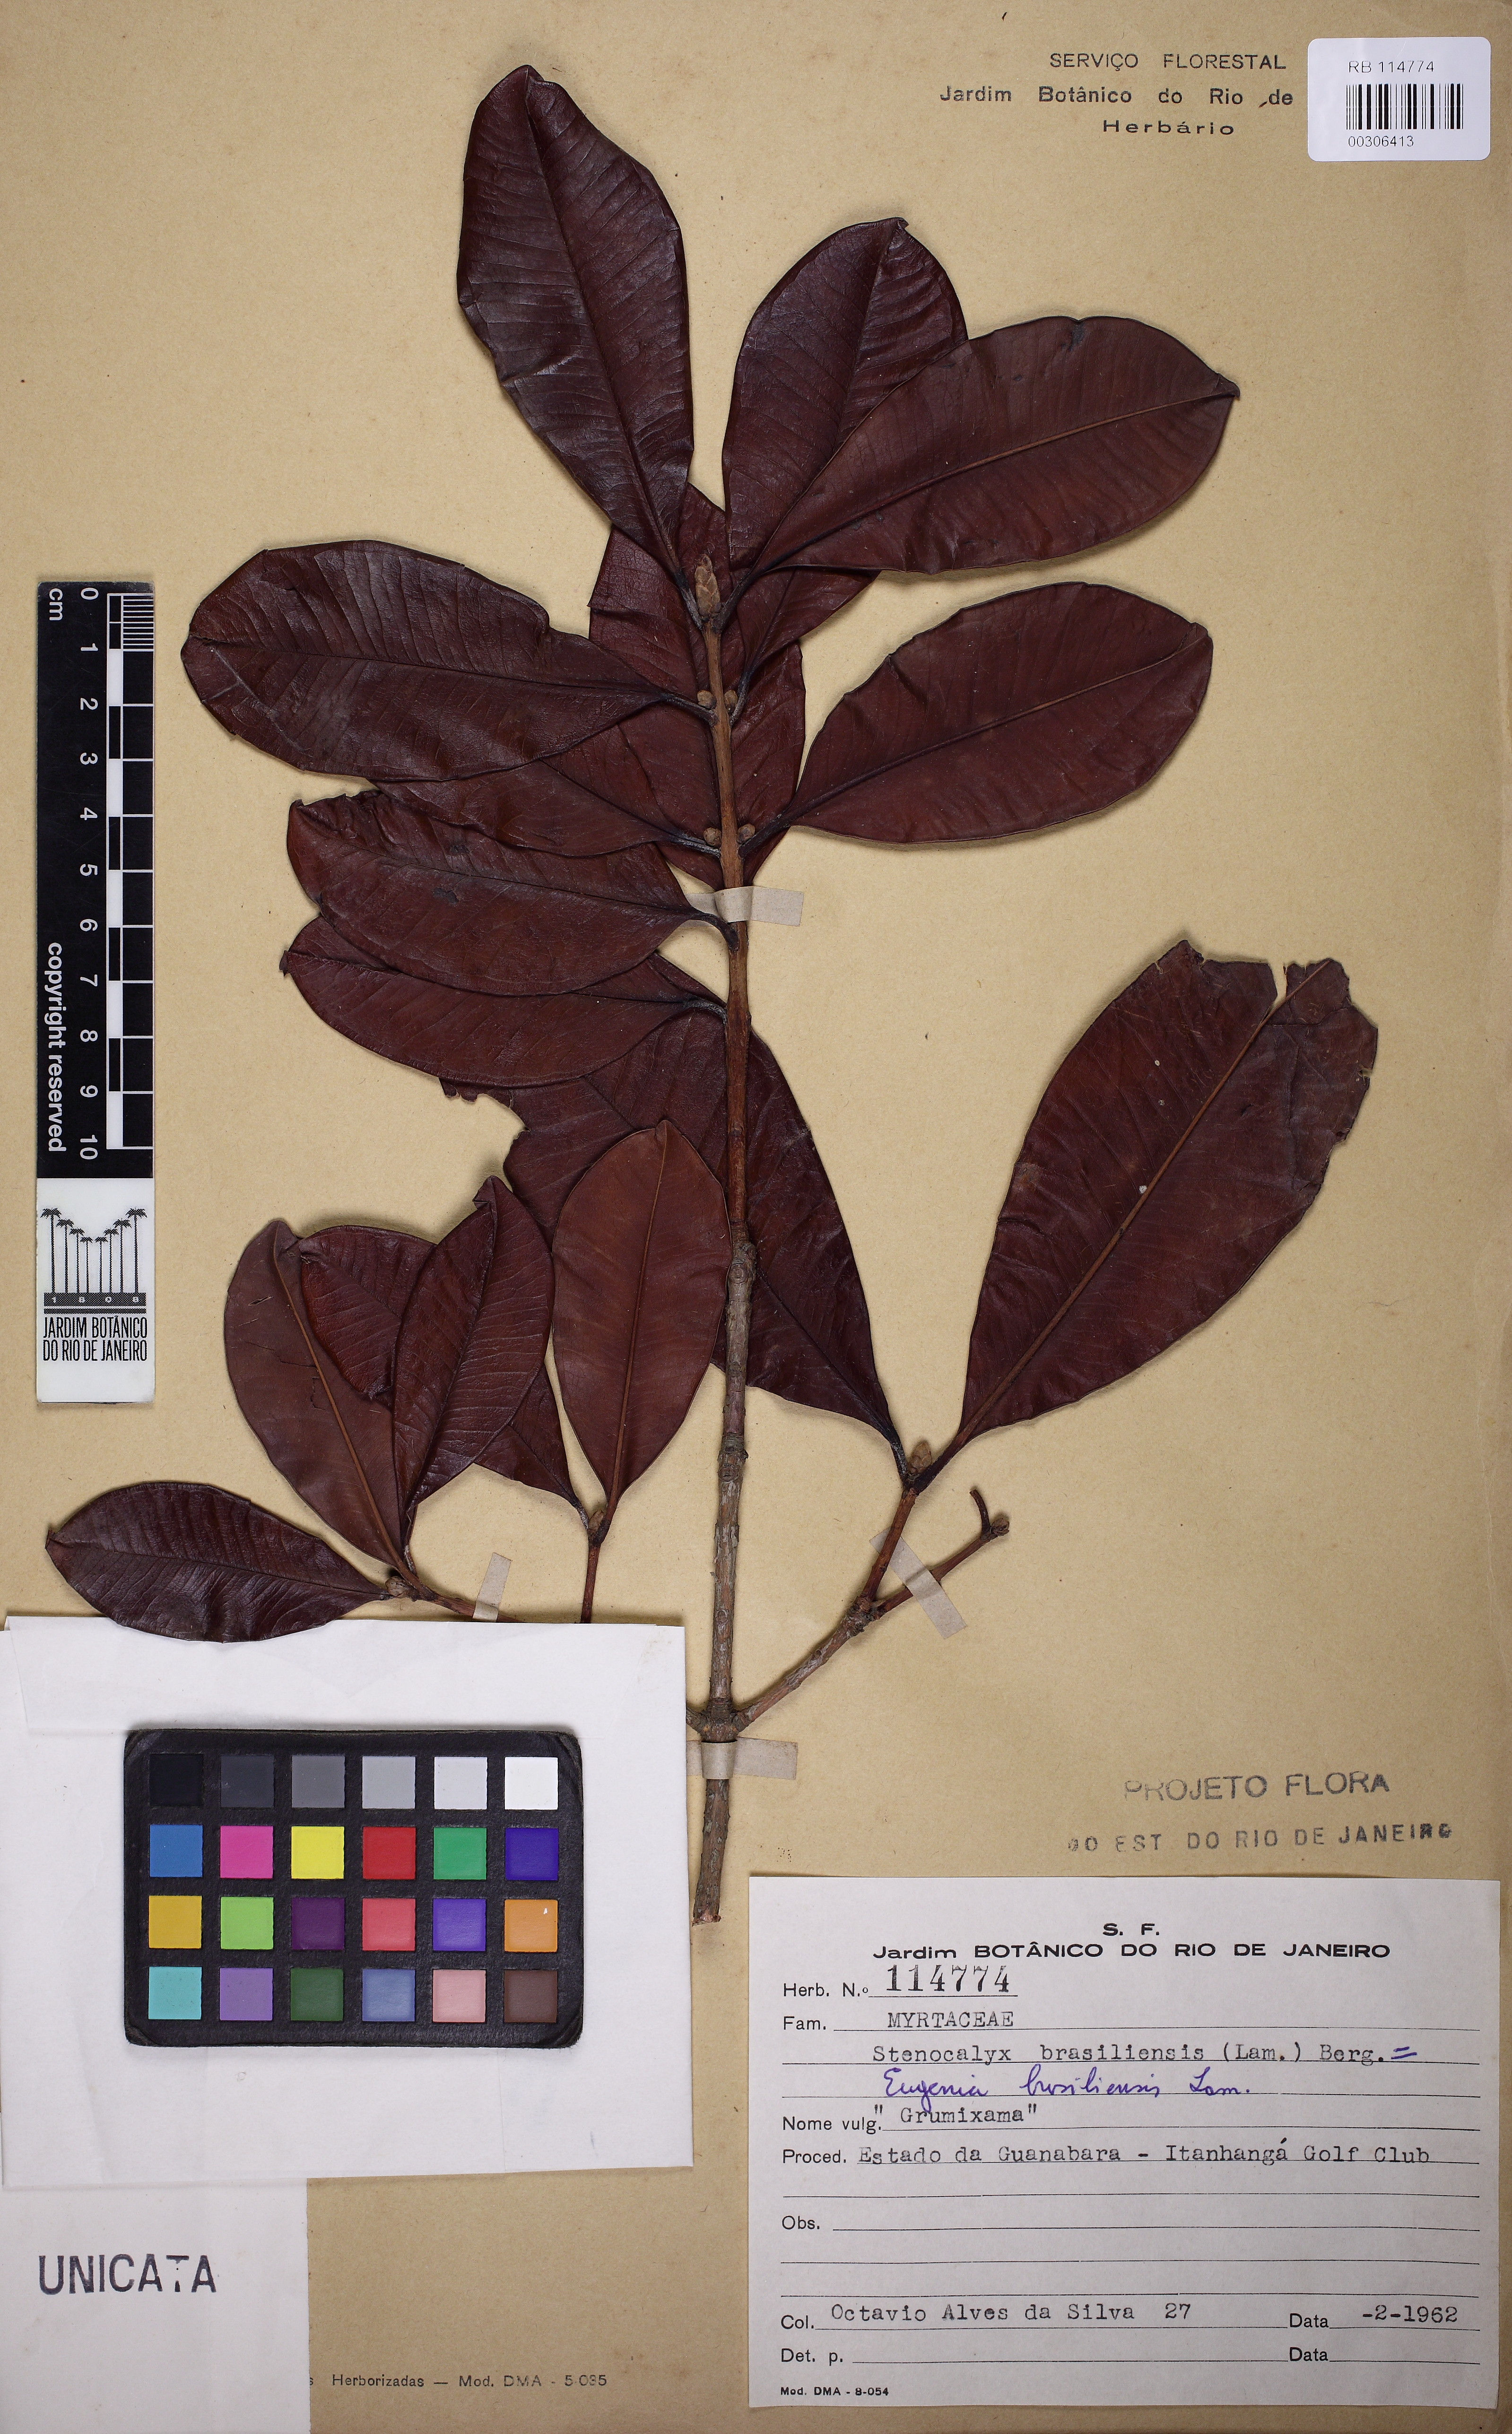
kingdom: Plantae
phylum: Tracheophyta
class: Magnoliopsida
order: Myrtales
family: Myrtaceae
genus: Eugenia
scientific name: Eugenia brasiliensis
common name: Grumichama
